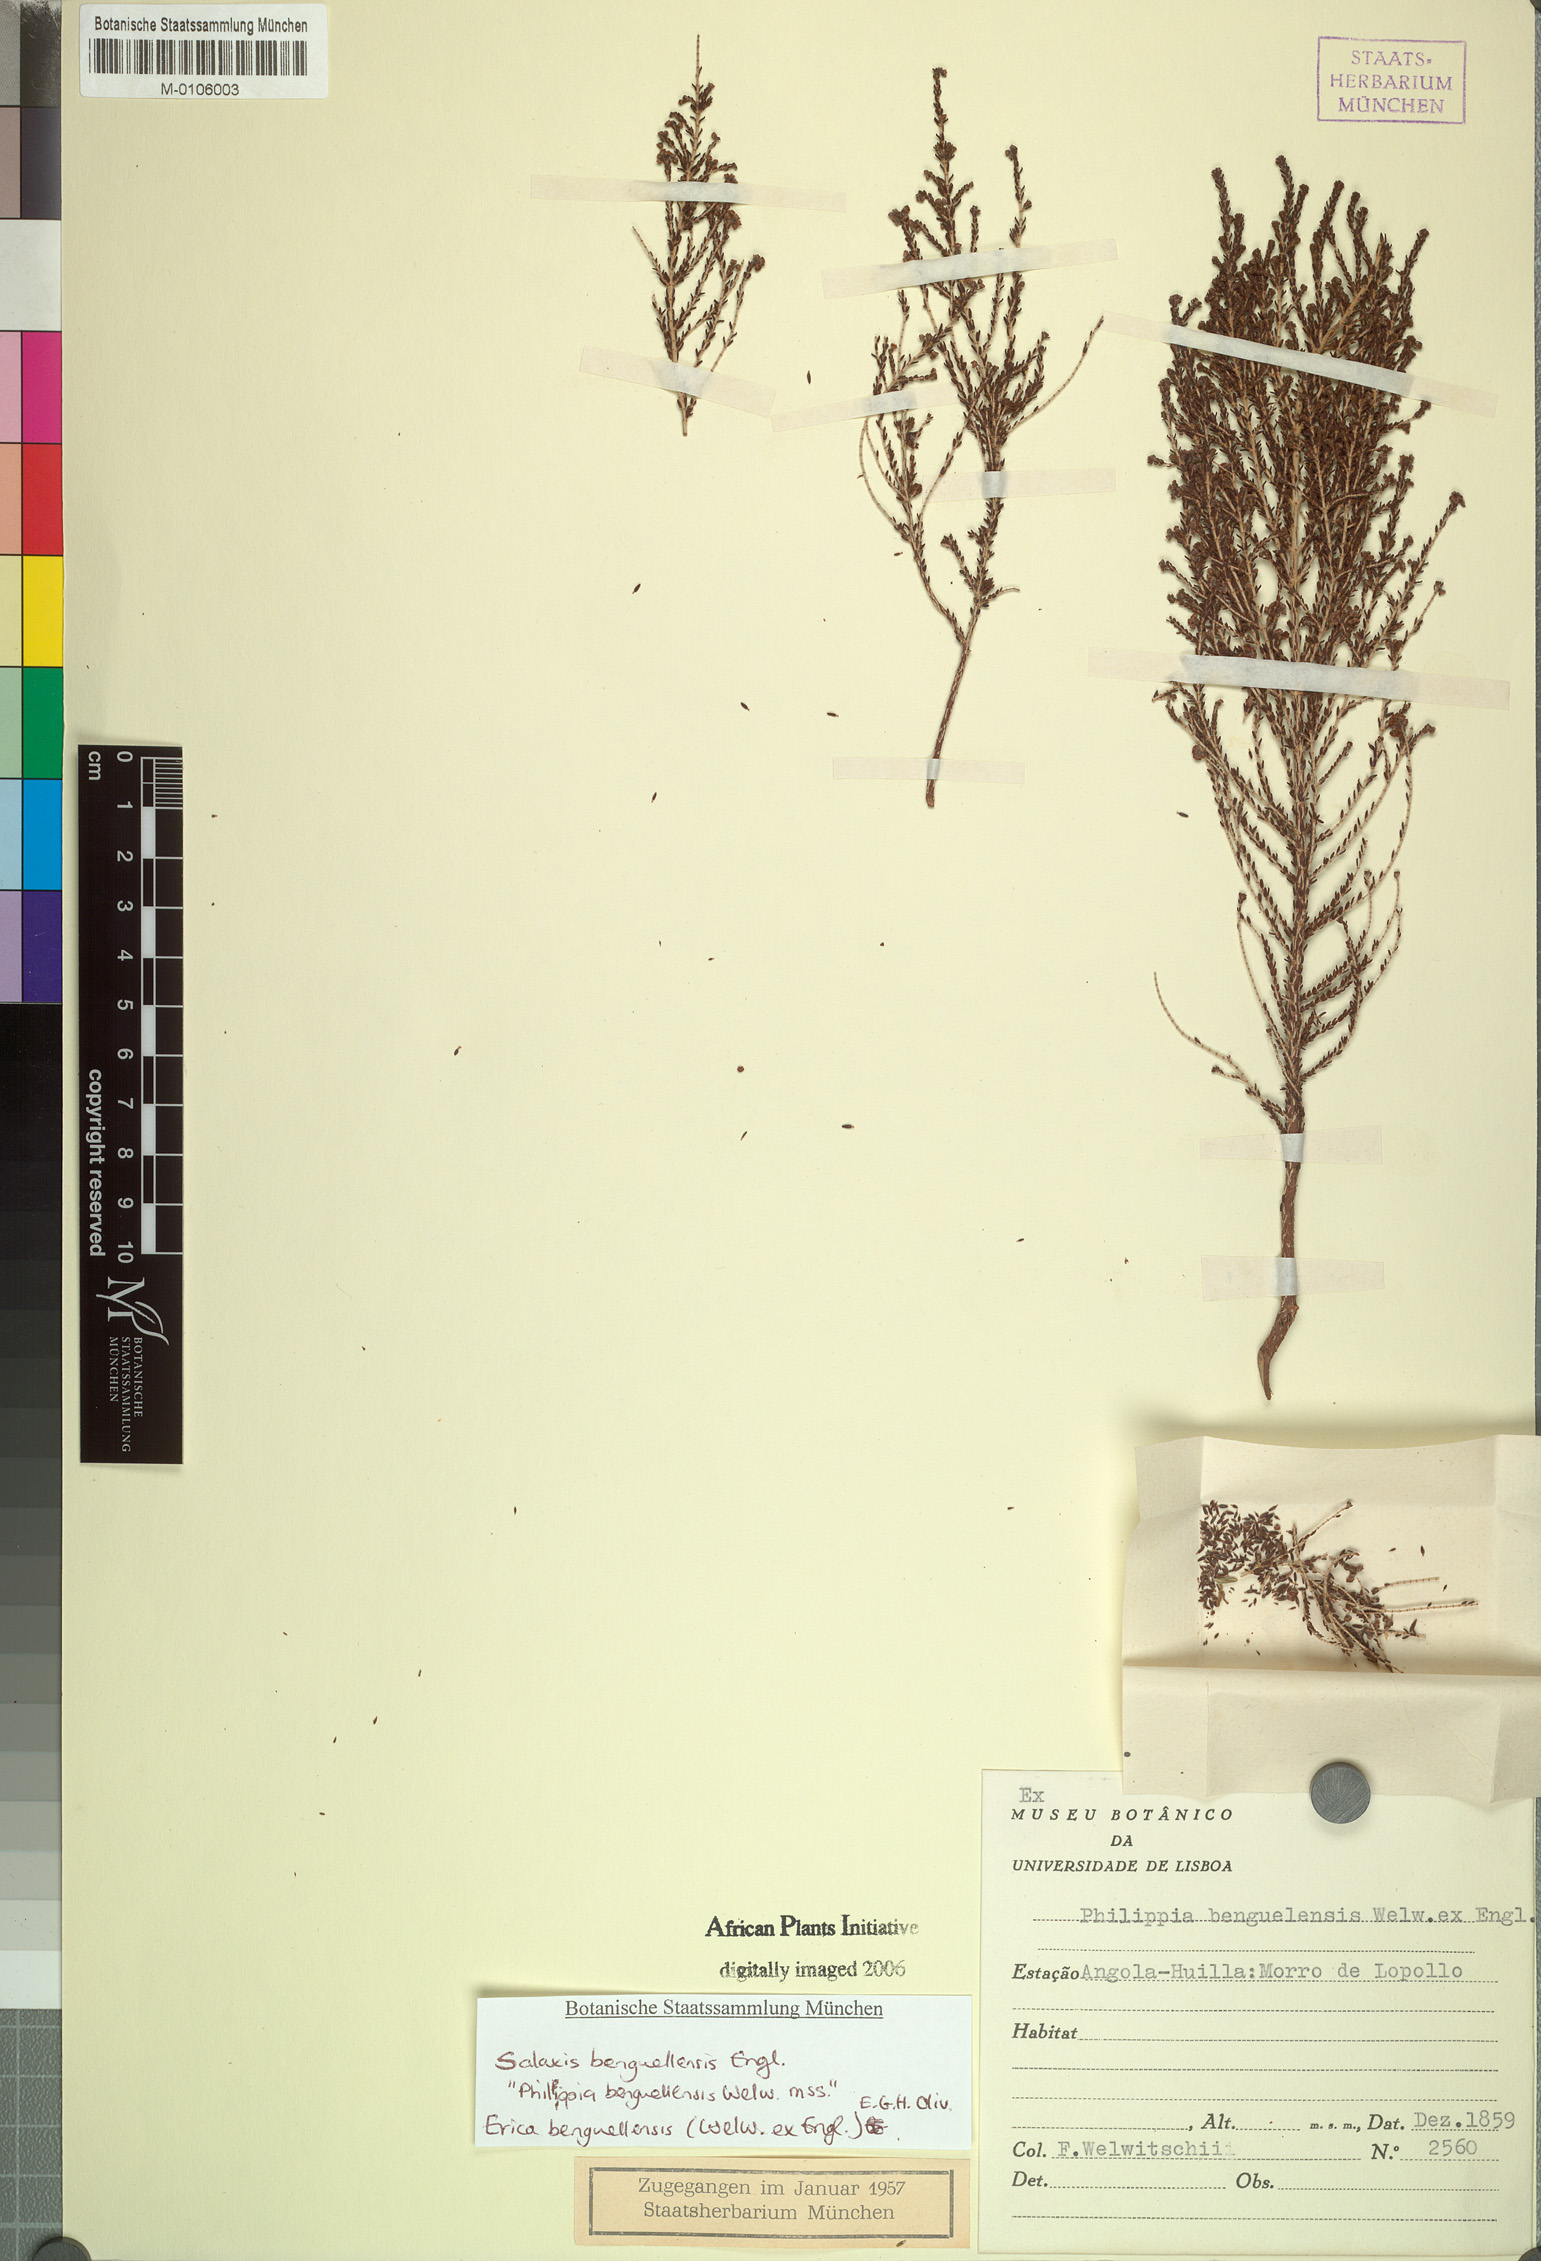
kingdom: Plantae
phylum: Tracheophyta
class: Magnoliopsida
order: Ericales
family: Ericaceae
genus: Erica
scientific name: Erica benguelensis
